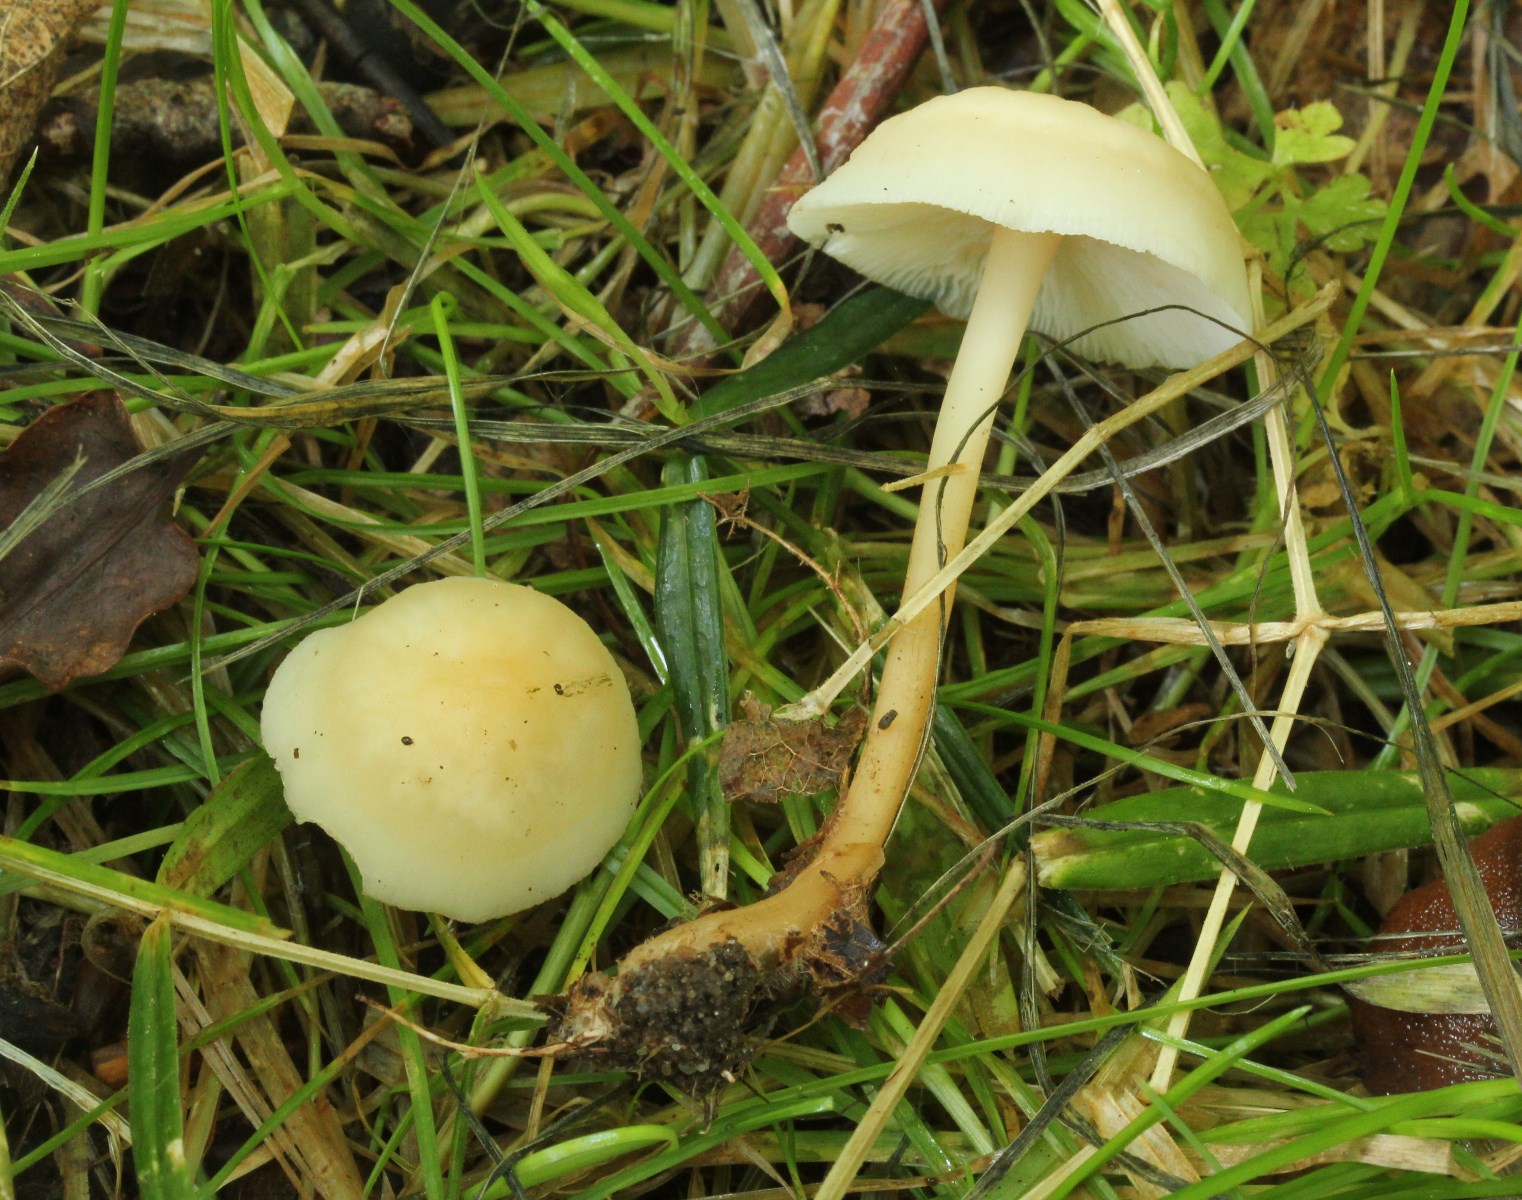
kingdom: Fungi
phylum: Basidiomycota
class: Agaricomycetes
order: Agaricales
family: Omphalotaceae
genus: Gymnopus
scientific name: Gymnopus aquosus
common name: bleg fladhat
